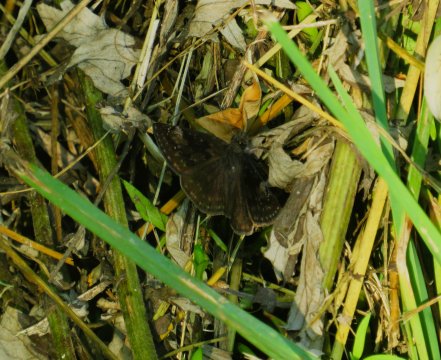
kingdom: Animalia
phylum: Arthropoda
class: Insecta
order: Lepidoptera
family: Hesperiidae
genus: Gesta
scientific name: Gesta
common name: Wild Indigo Duskywing
